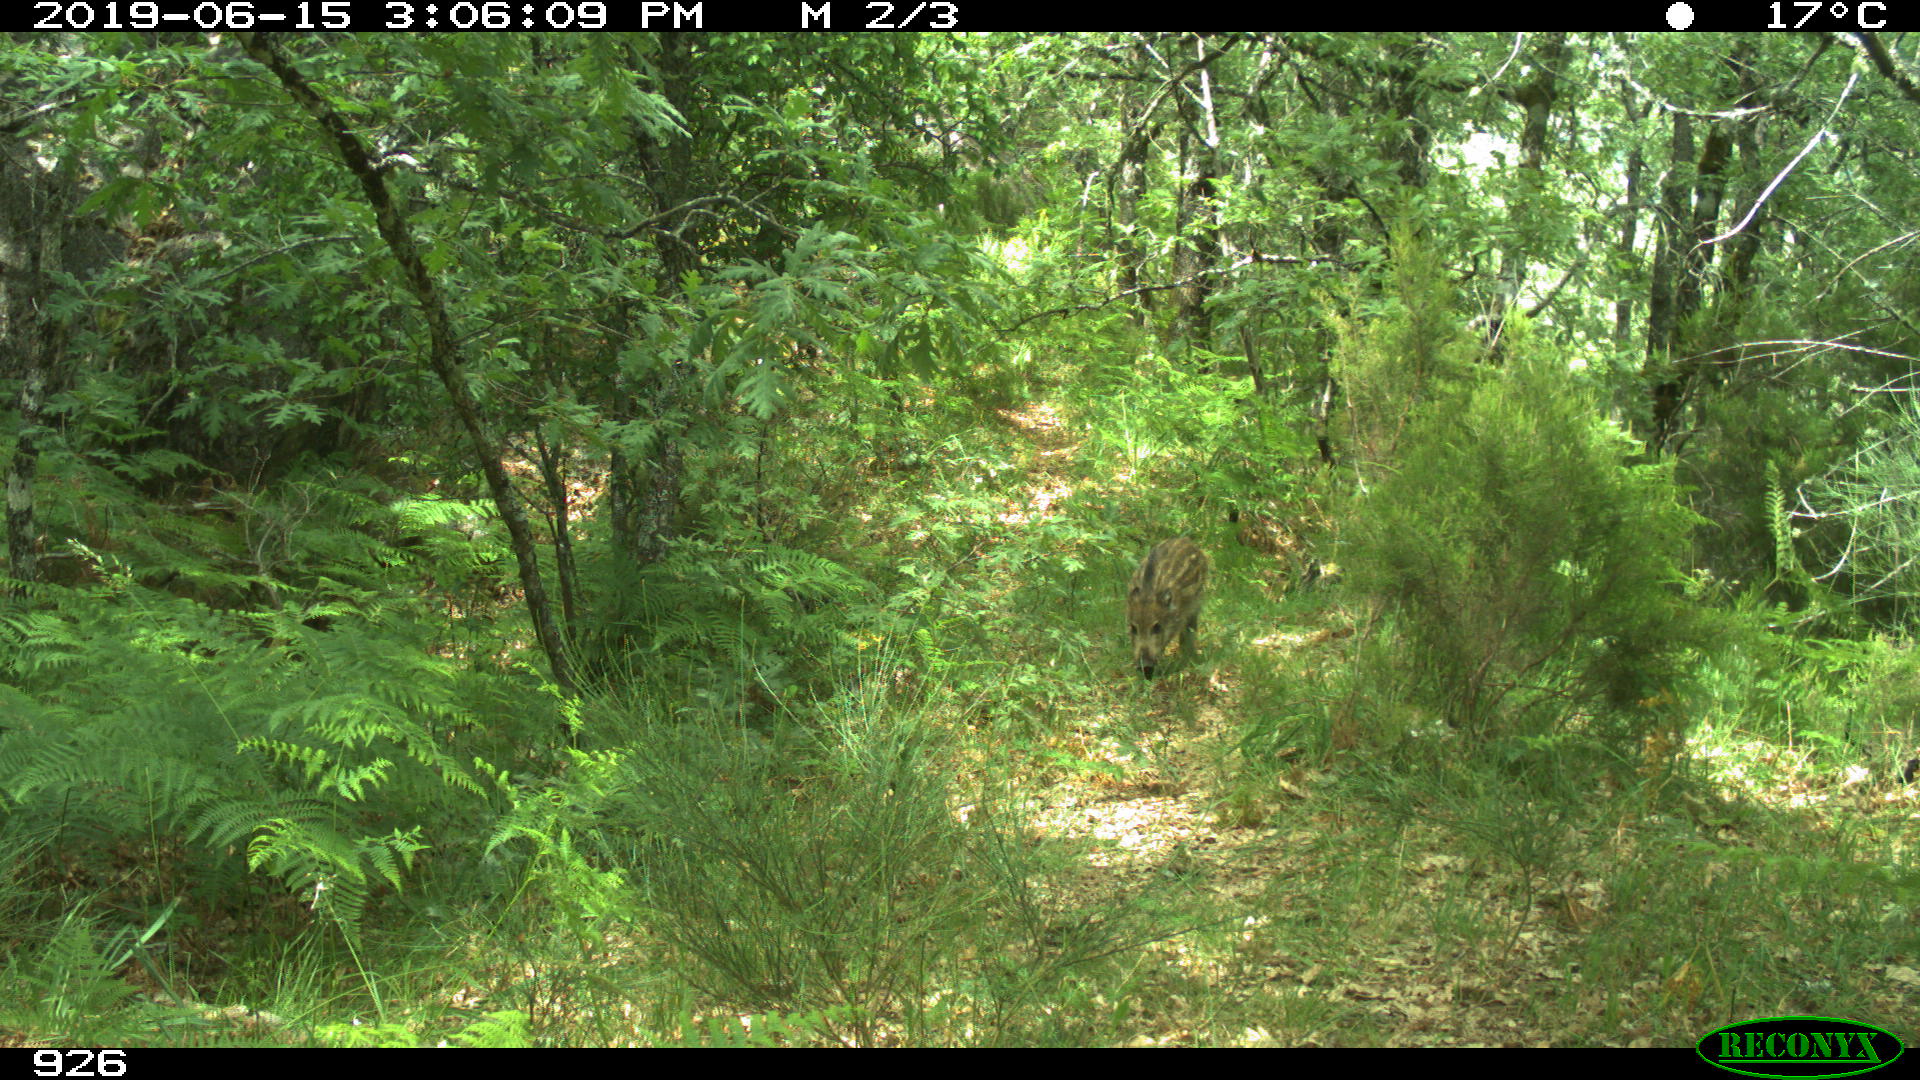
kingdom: Animalia
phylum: Chordata
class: Mammalia
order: Artiodactyla
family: Suidae
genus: Sus
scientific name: Sus scrofa
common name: Wild boar
